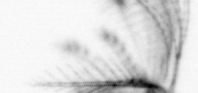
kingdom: Animalia
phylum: Arthropoda
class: Maxillopoda
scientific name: Maxillopoda
